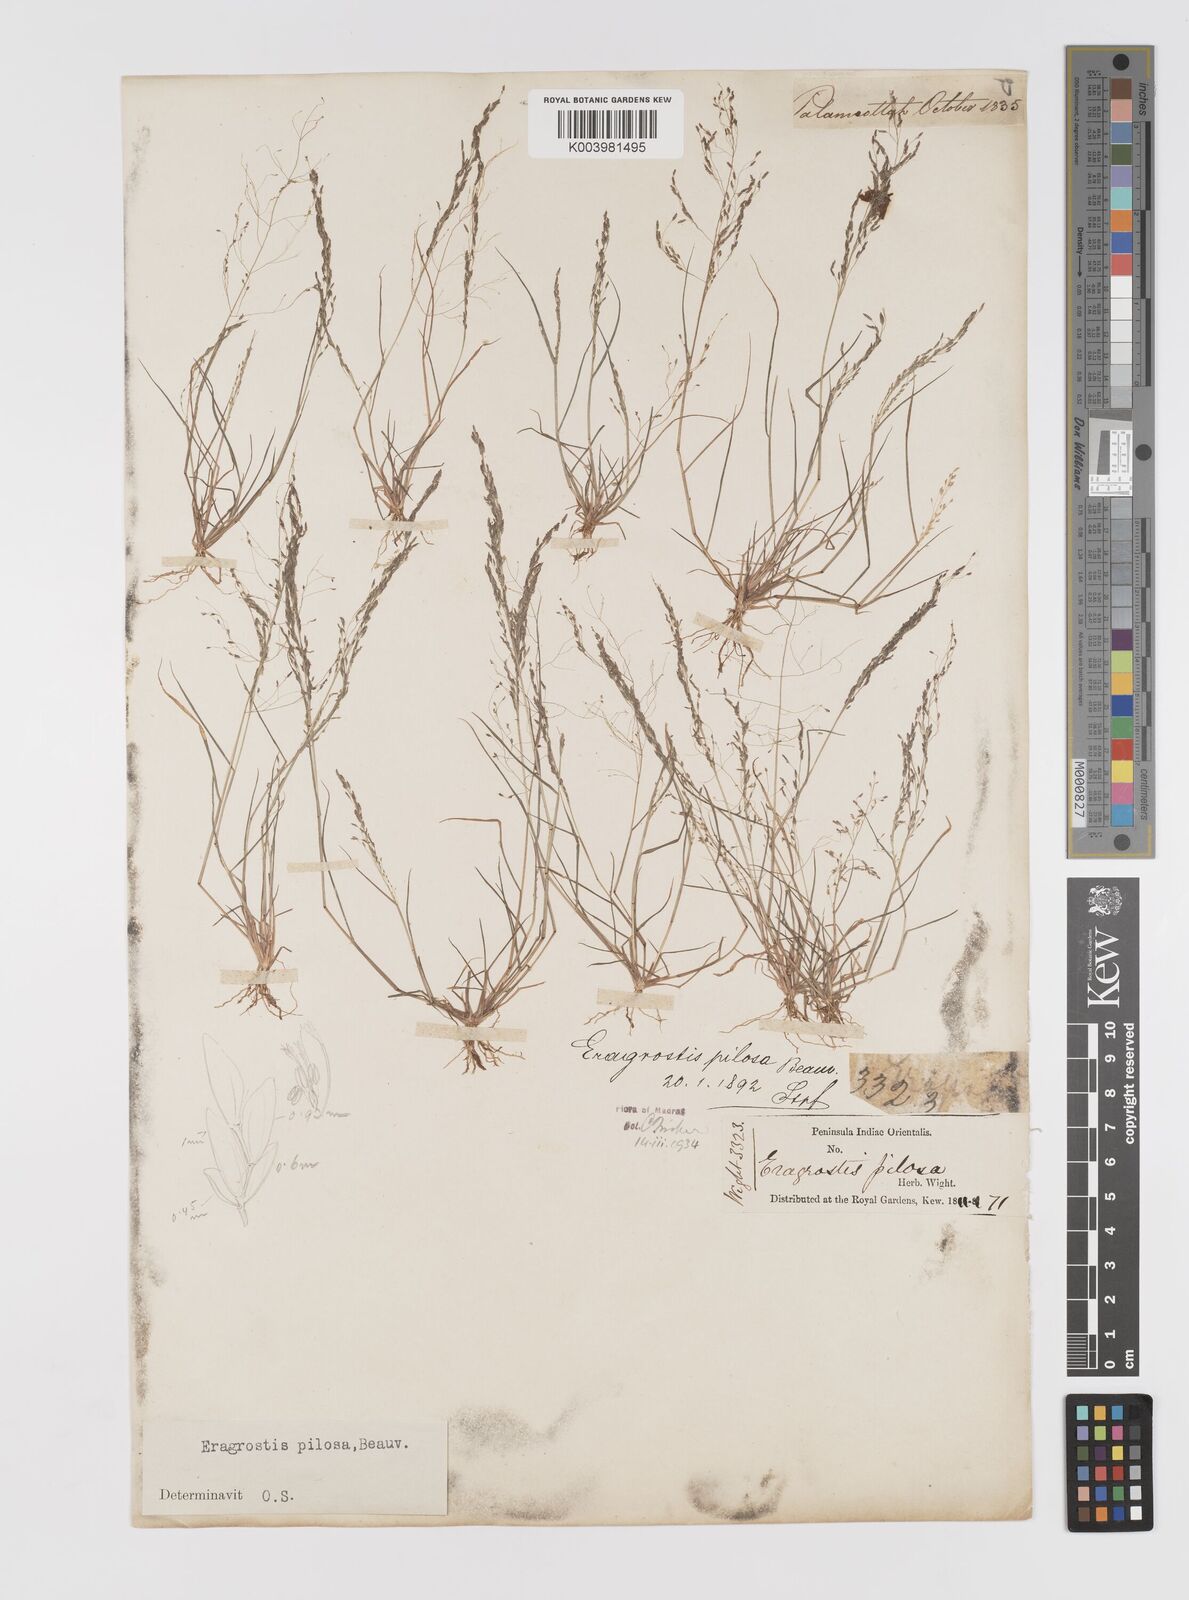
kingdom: Plantae
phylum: Tracheophyta
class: Liliopsida
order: Poales
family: Poaceae
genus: Eragrostis
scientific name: Eragrostis pilosa
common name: Indian lovegrass
